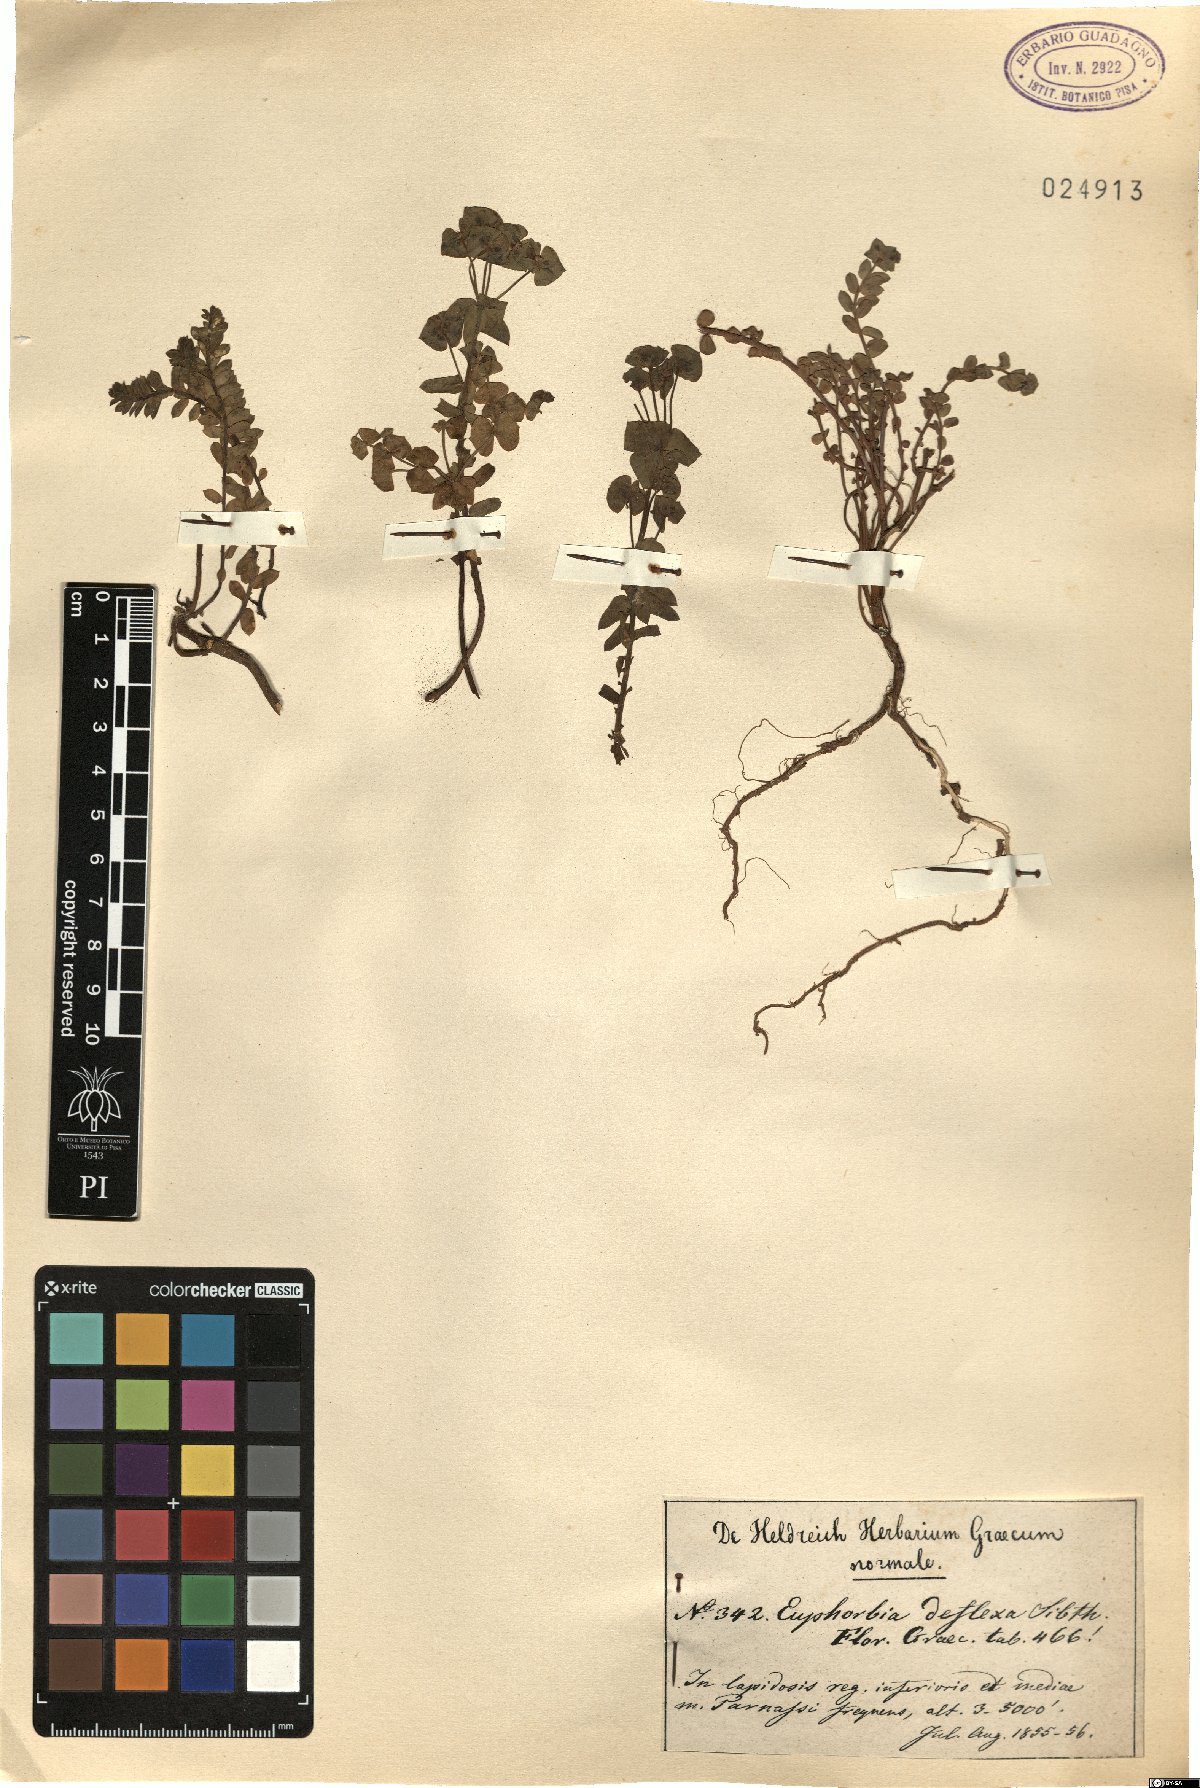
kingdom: Plantae
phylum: Tracheophyta
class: Magnoliopsida
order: Malpighiales
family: Euphorbiaceae
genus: Euphorbia
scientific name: Euphorbia deflexa
